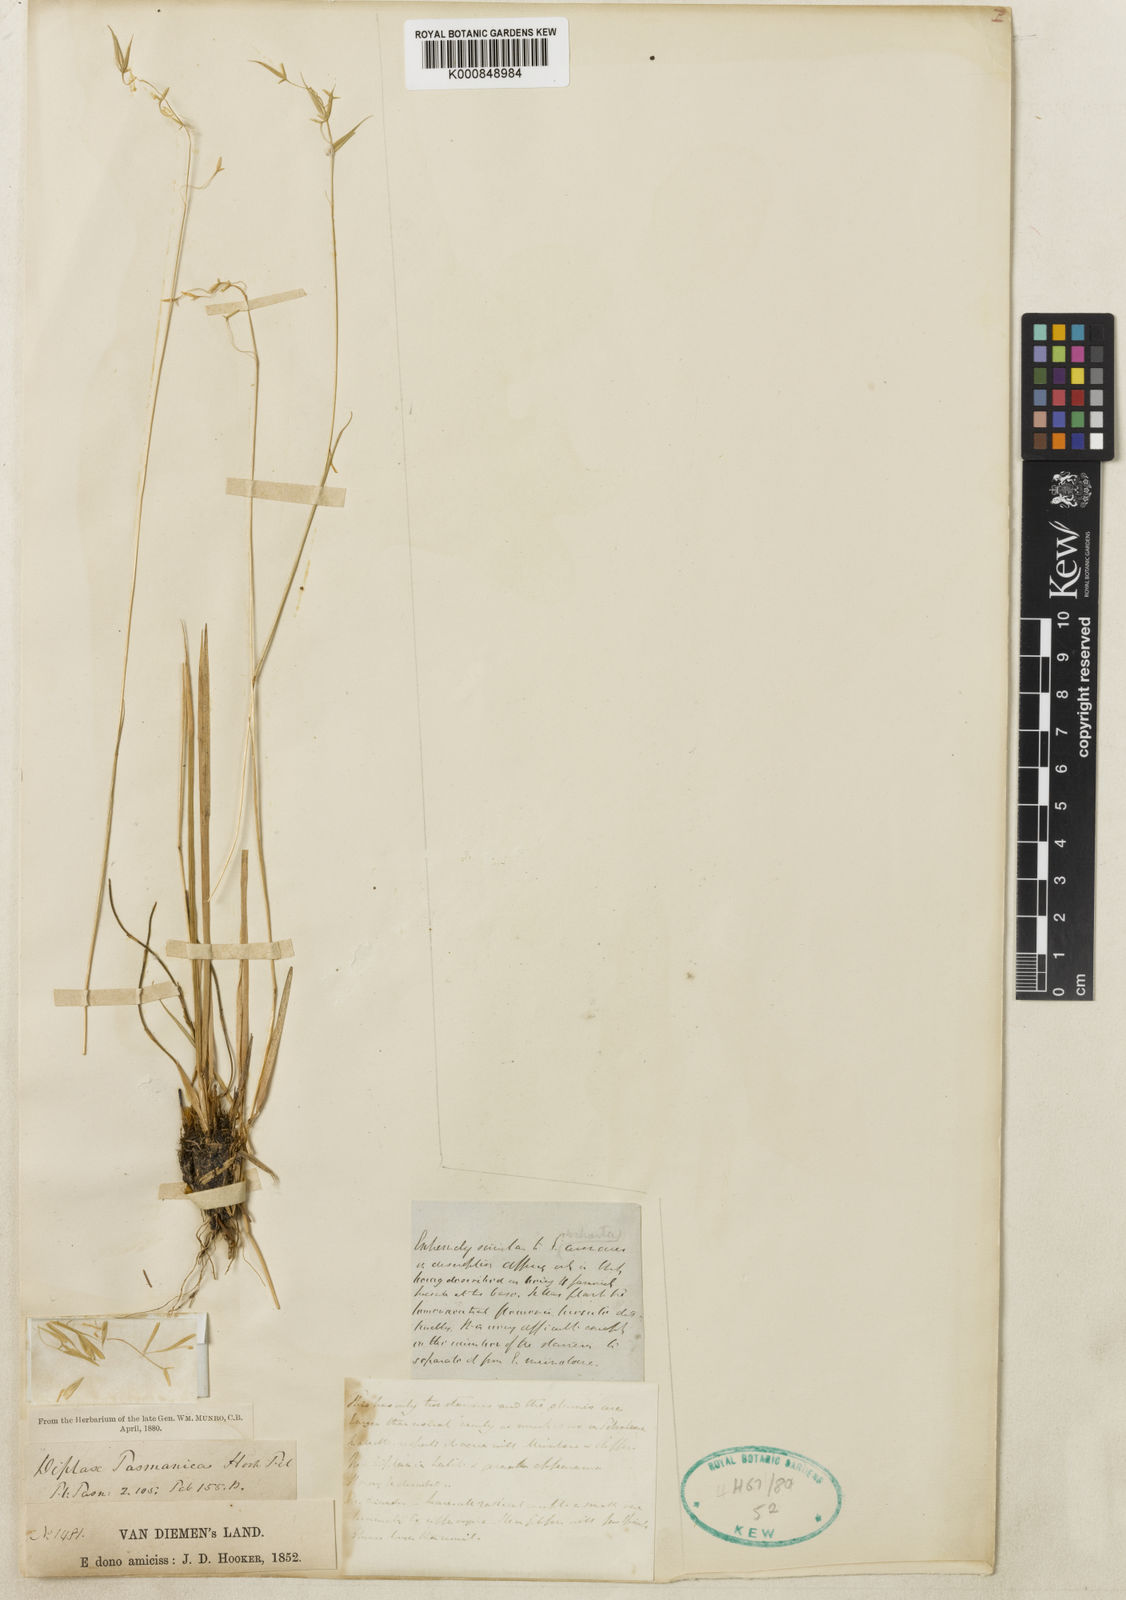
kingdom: Plantae
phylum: Tracheophyta
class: Liliopsida
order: Poales
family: Poaceae
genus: Ehrharta
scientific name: Ehrharta
